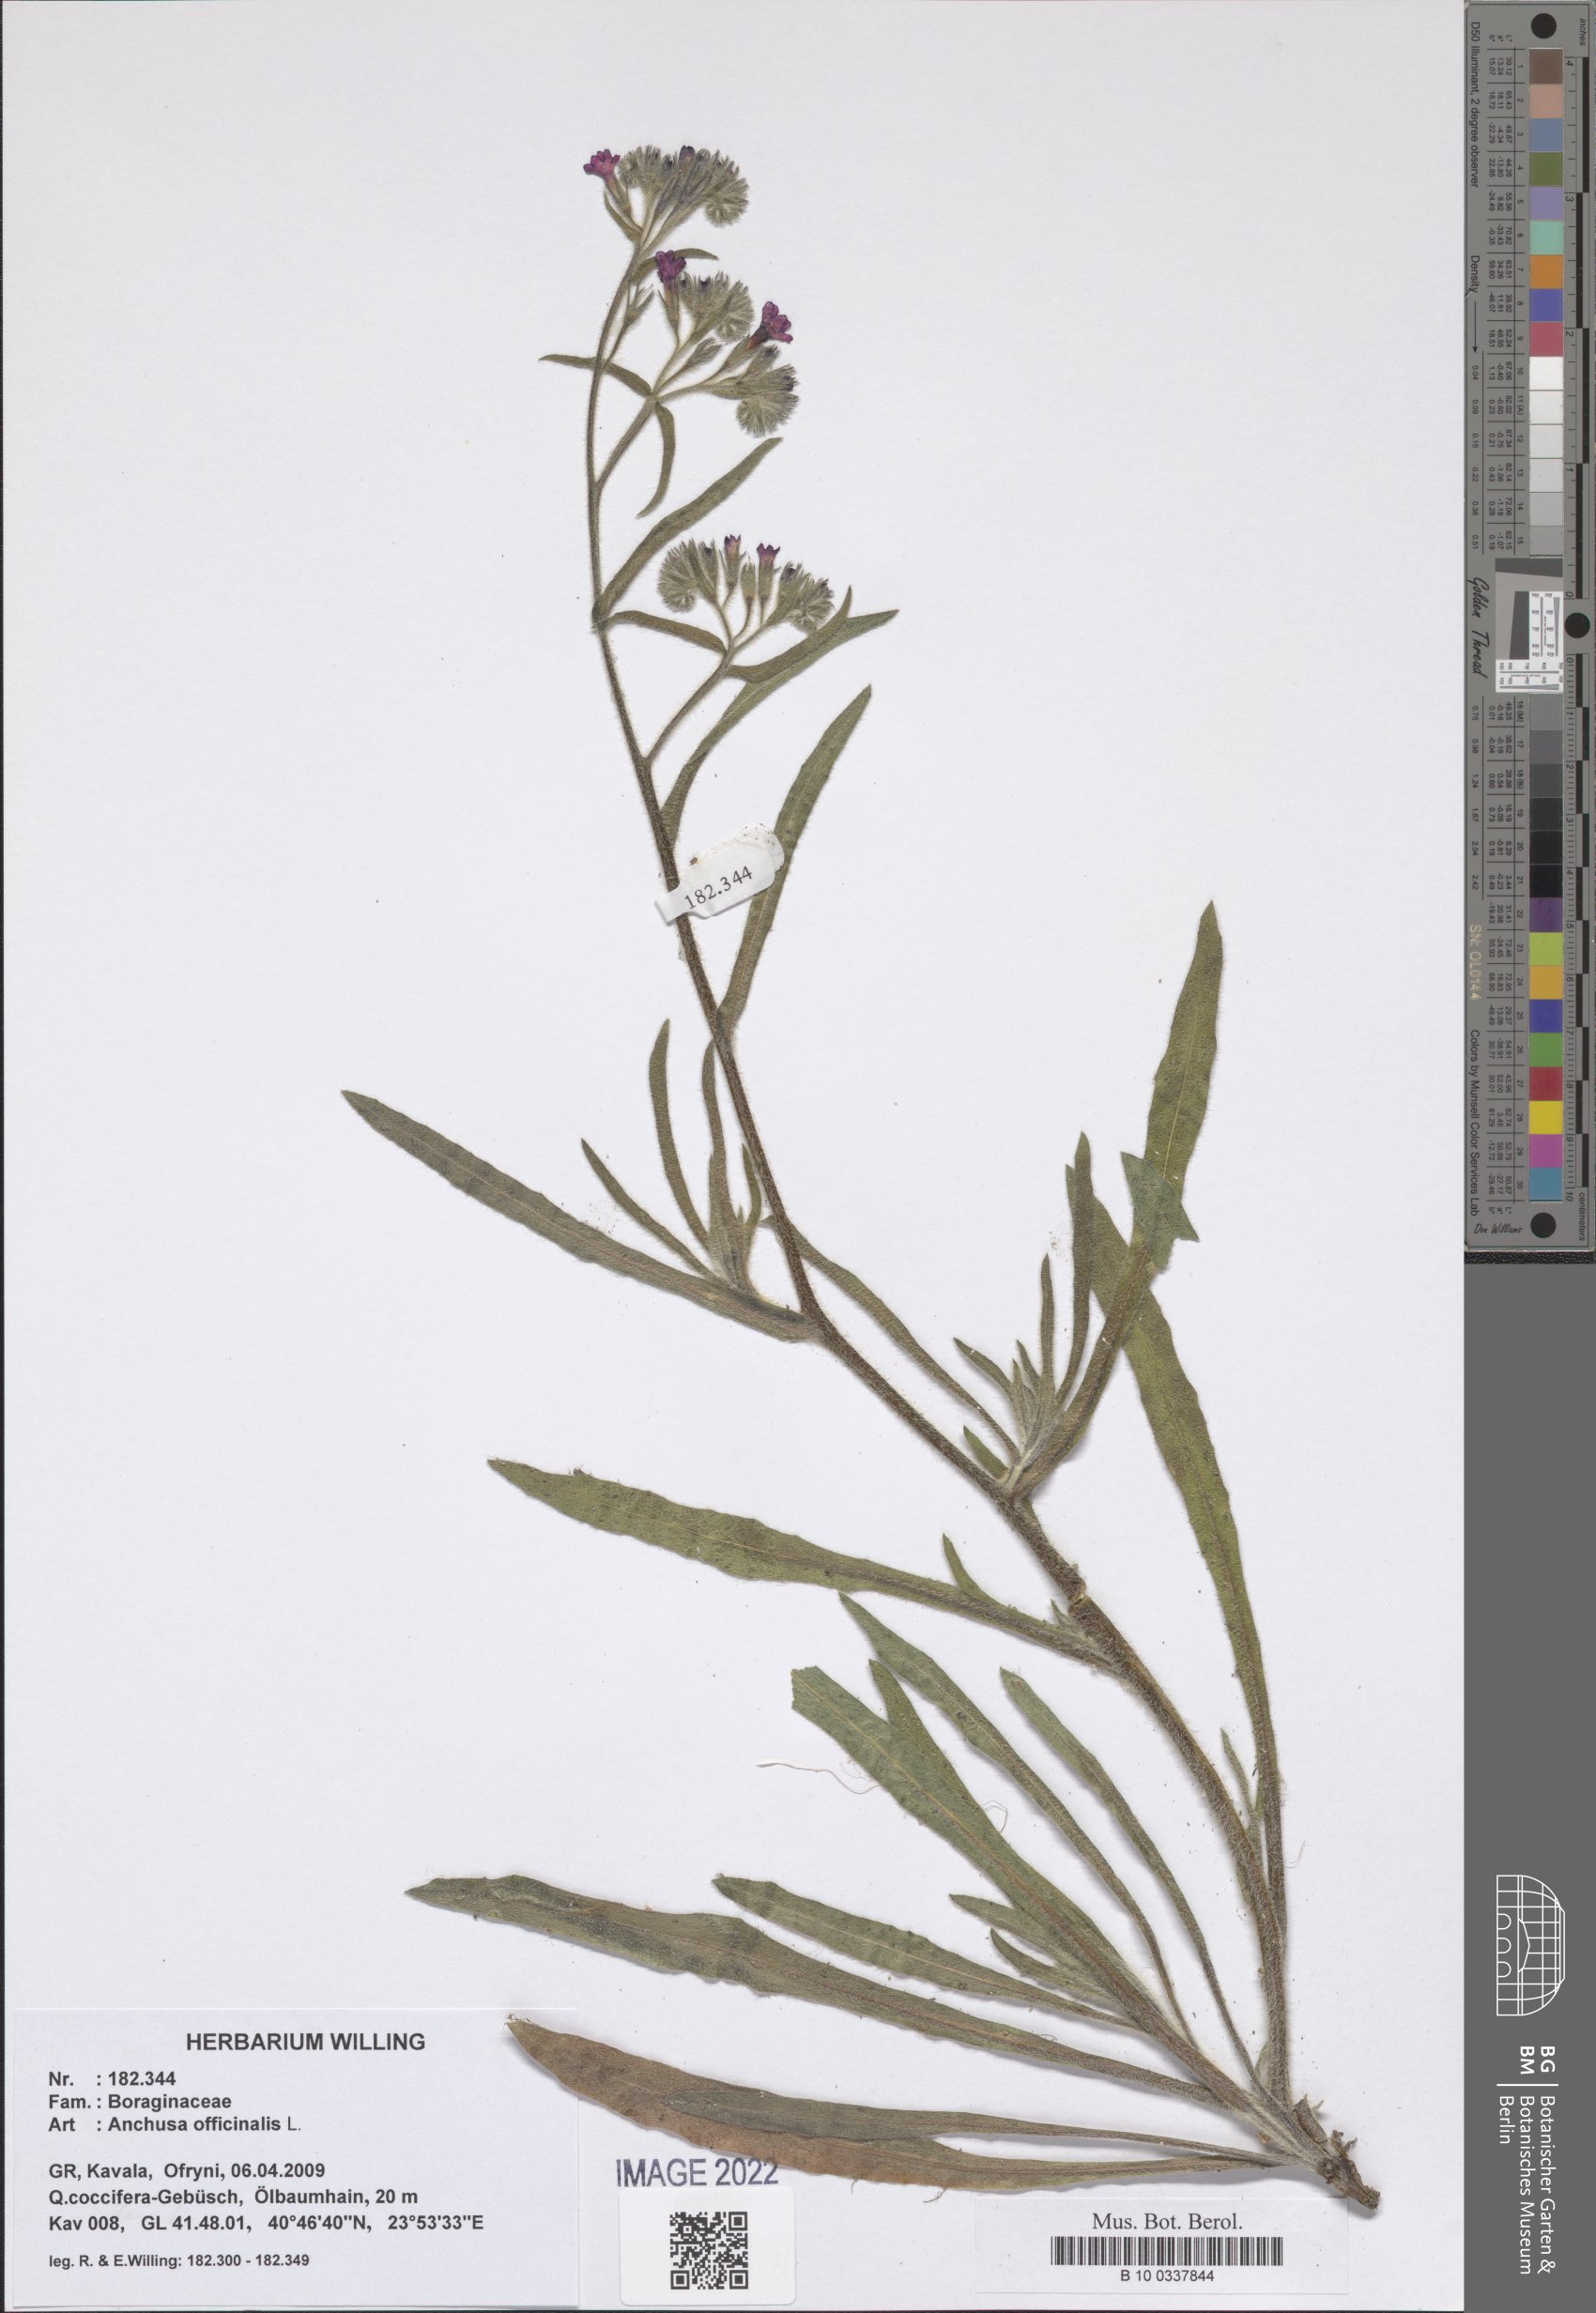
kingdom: Plantae
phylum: Tracheophyta
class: Magnoliopsida
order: Boraginales
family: Boraginaceae
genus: Anchusa
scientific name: Anchusa officinalis
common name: Alkanet
